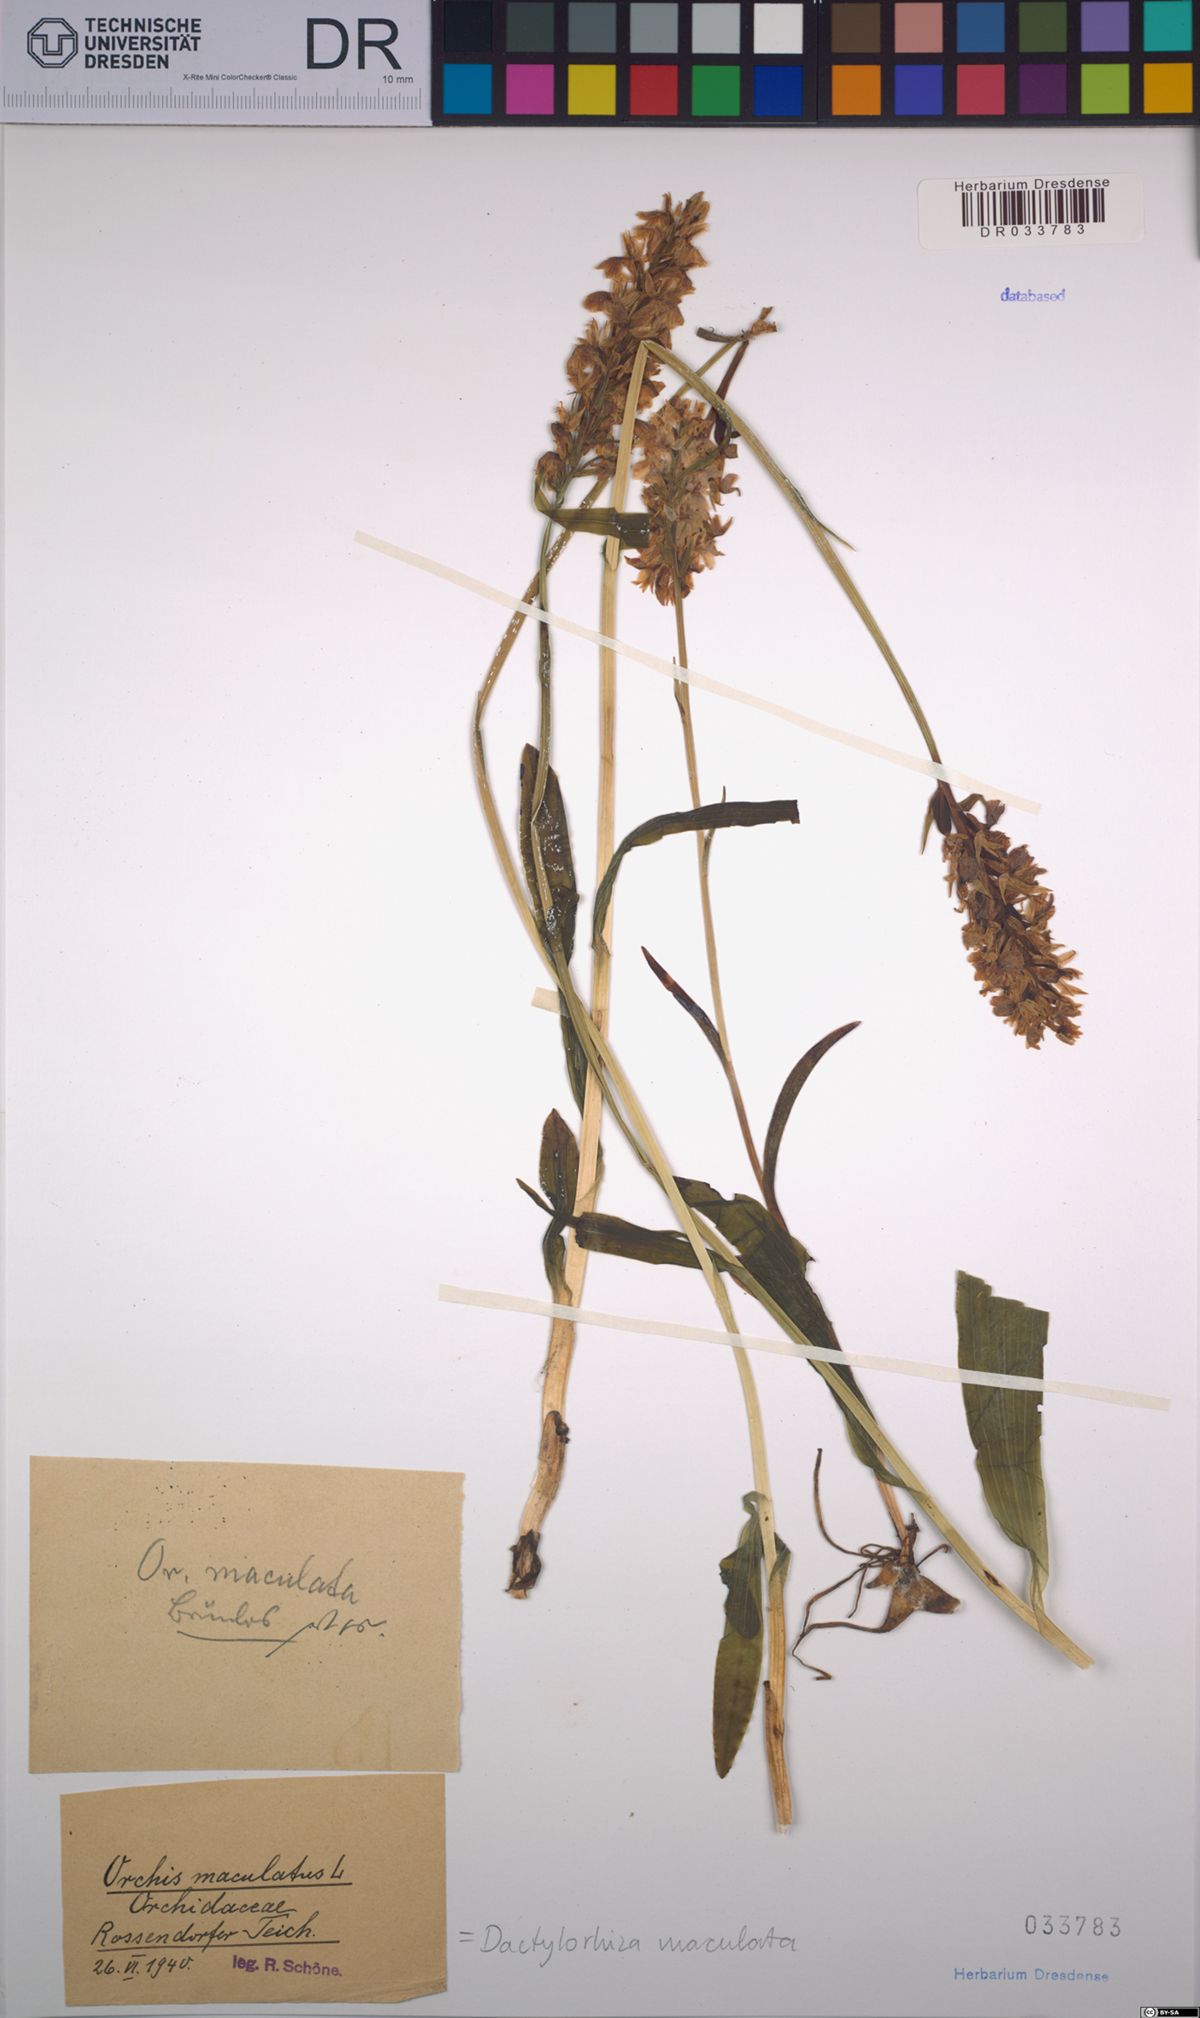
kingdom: Plantae
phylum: Tracheophyta
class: Liliopsida
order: Asparagales
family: Orchidaceae
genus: Dactylorhiza
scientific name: Dactylorhiza maculata
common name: Heath spotted-orchid
